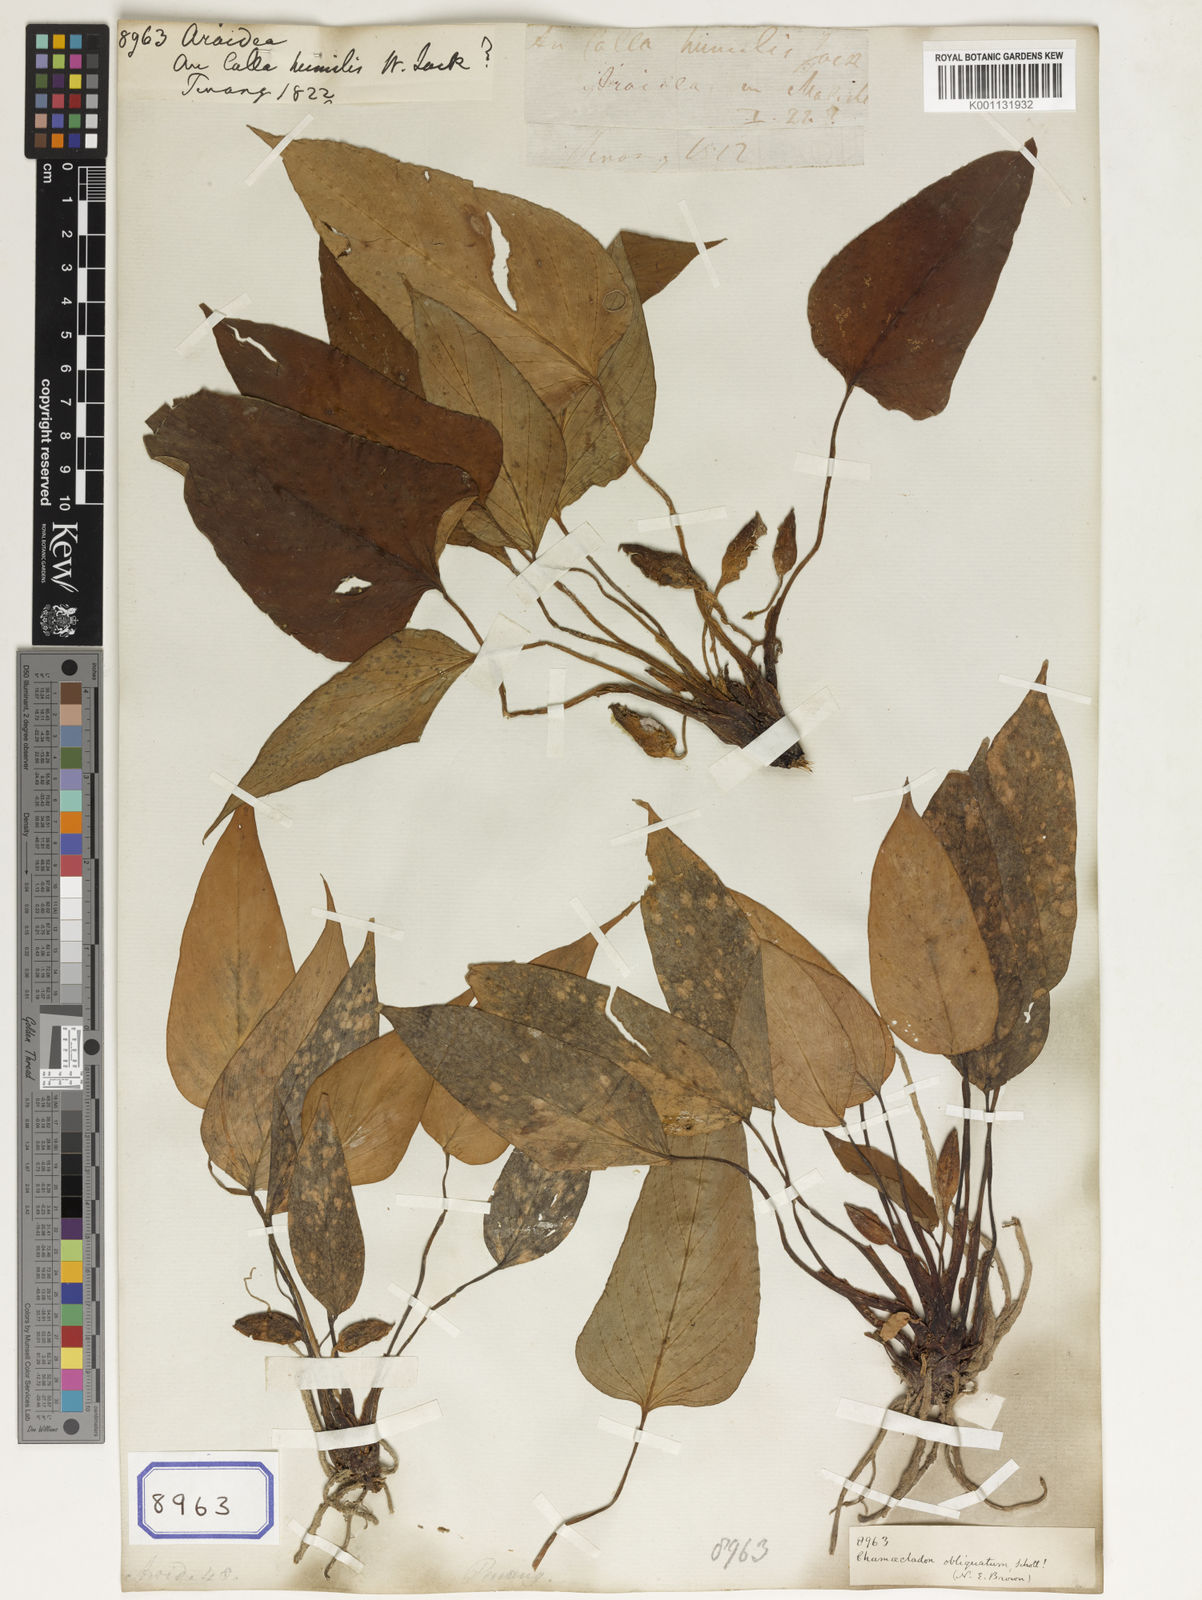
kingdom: Plantae
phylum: Tracheophyta
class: Liliopsida
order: Alismatales
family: Araceae
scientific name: Araceae
